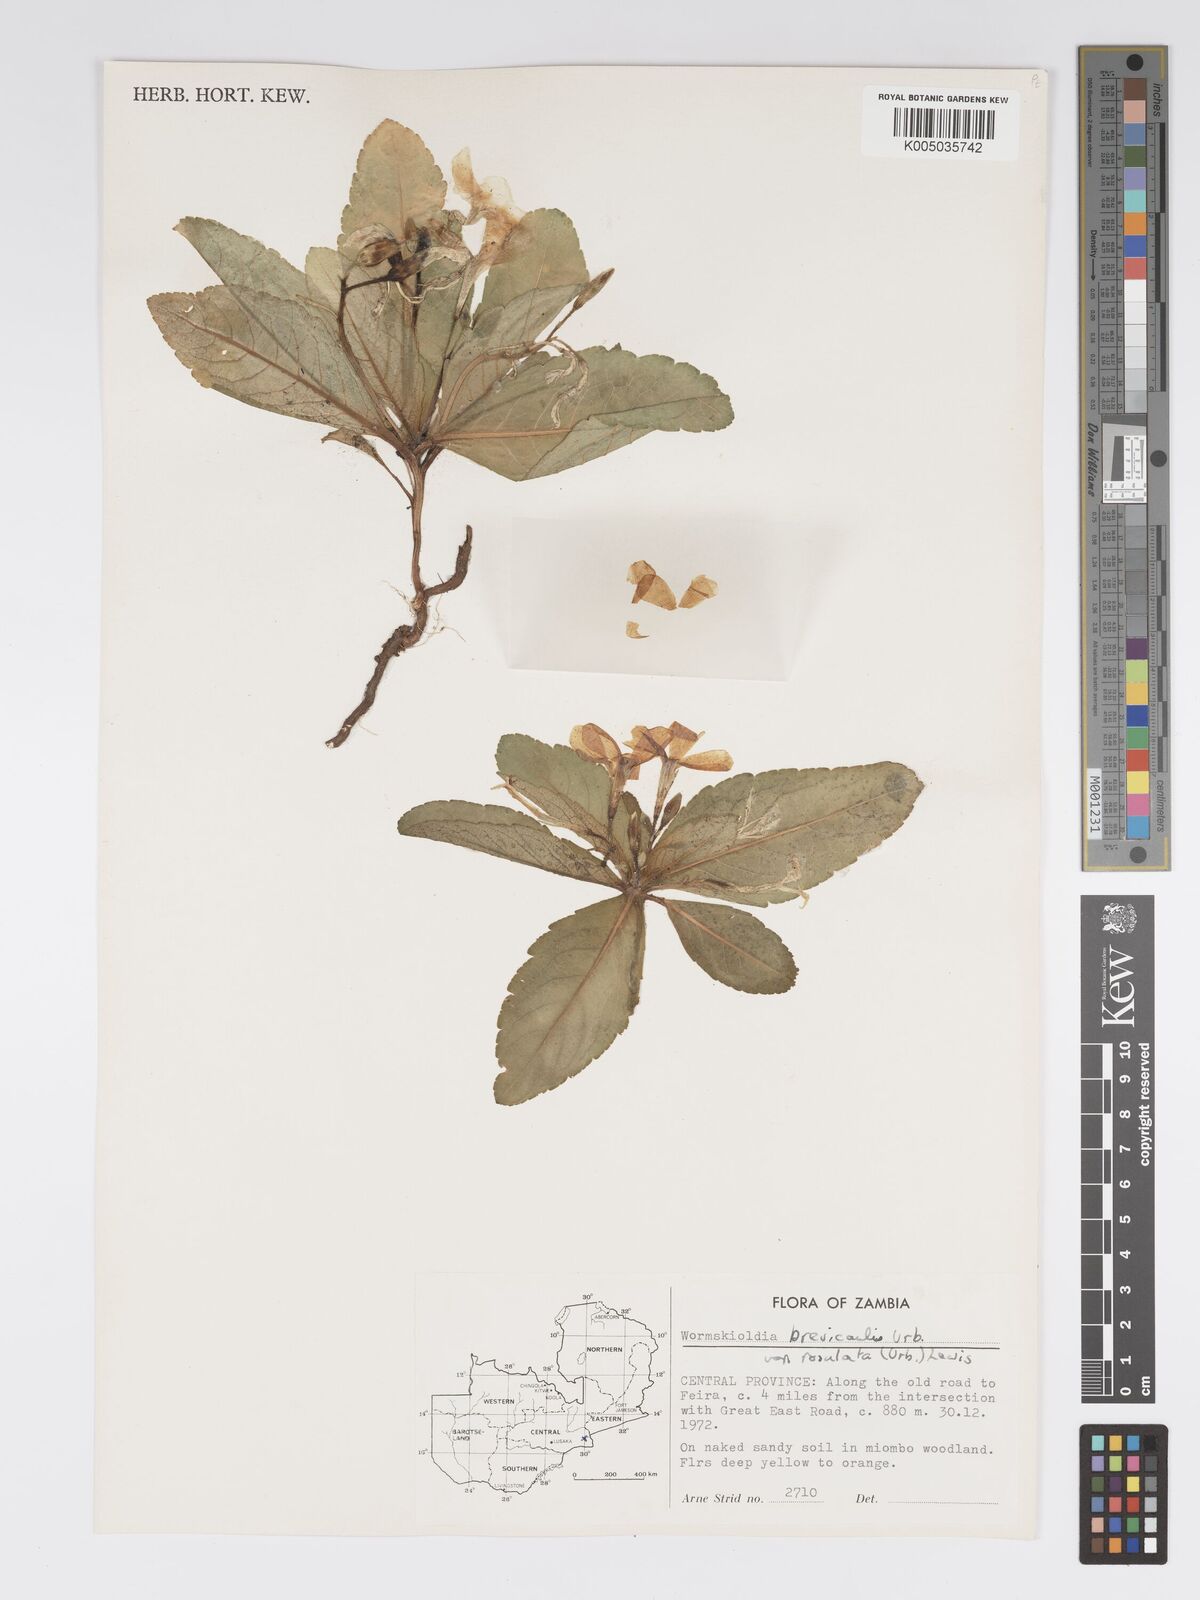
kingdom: Plantae
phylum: Tracheophyta
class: Magnoliopsida
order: Malpighiales
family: Turneraceae
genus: Tricliceras
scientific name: Tricliceras brevicaule
